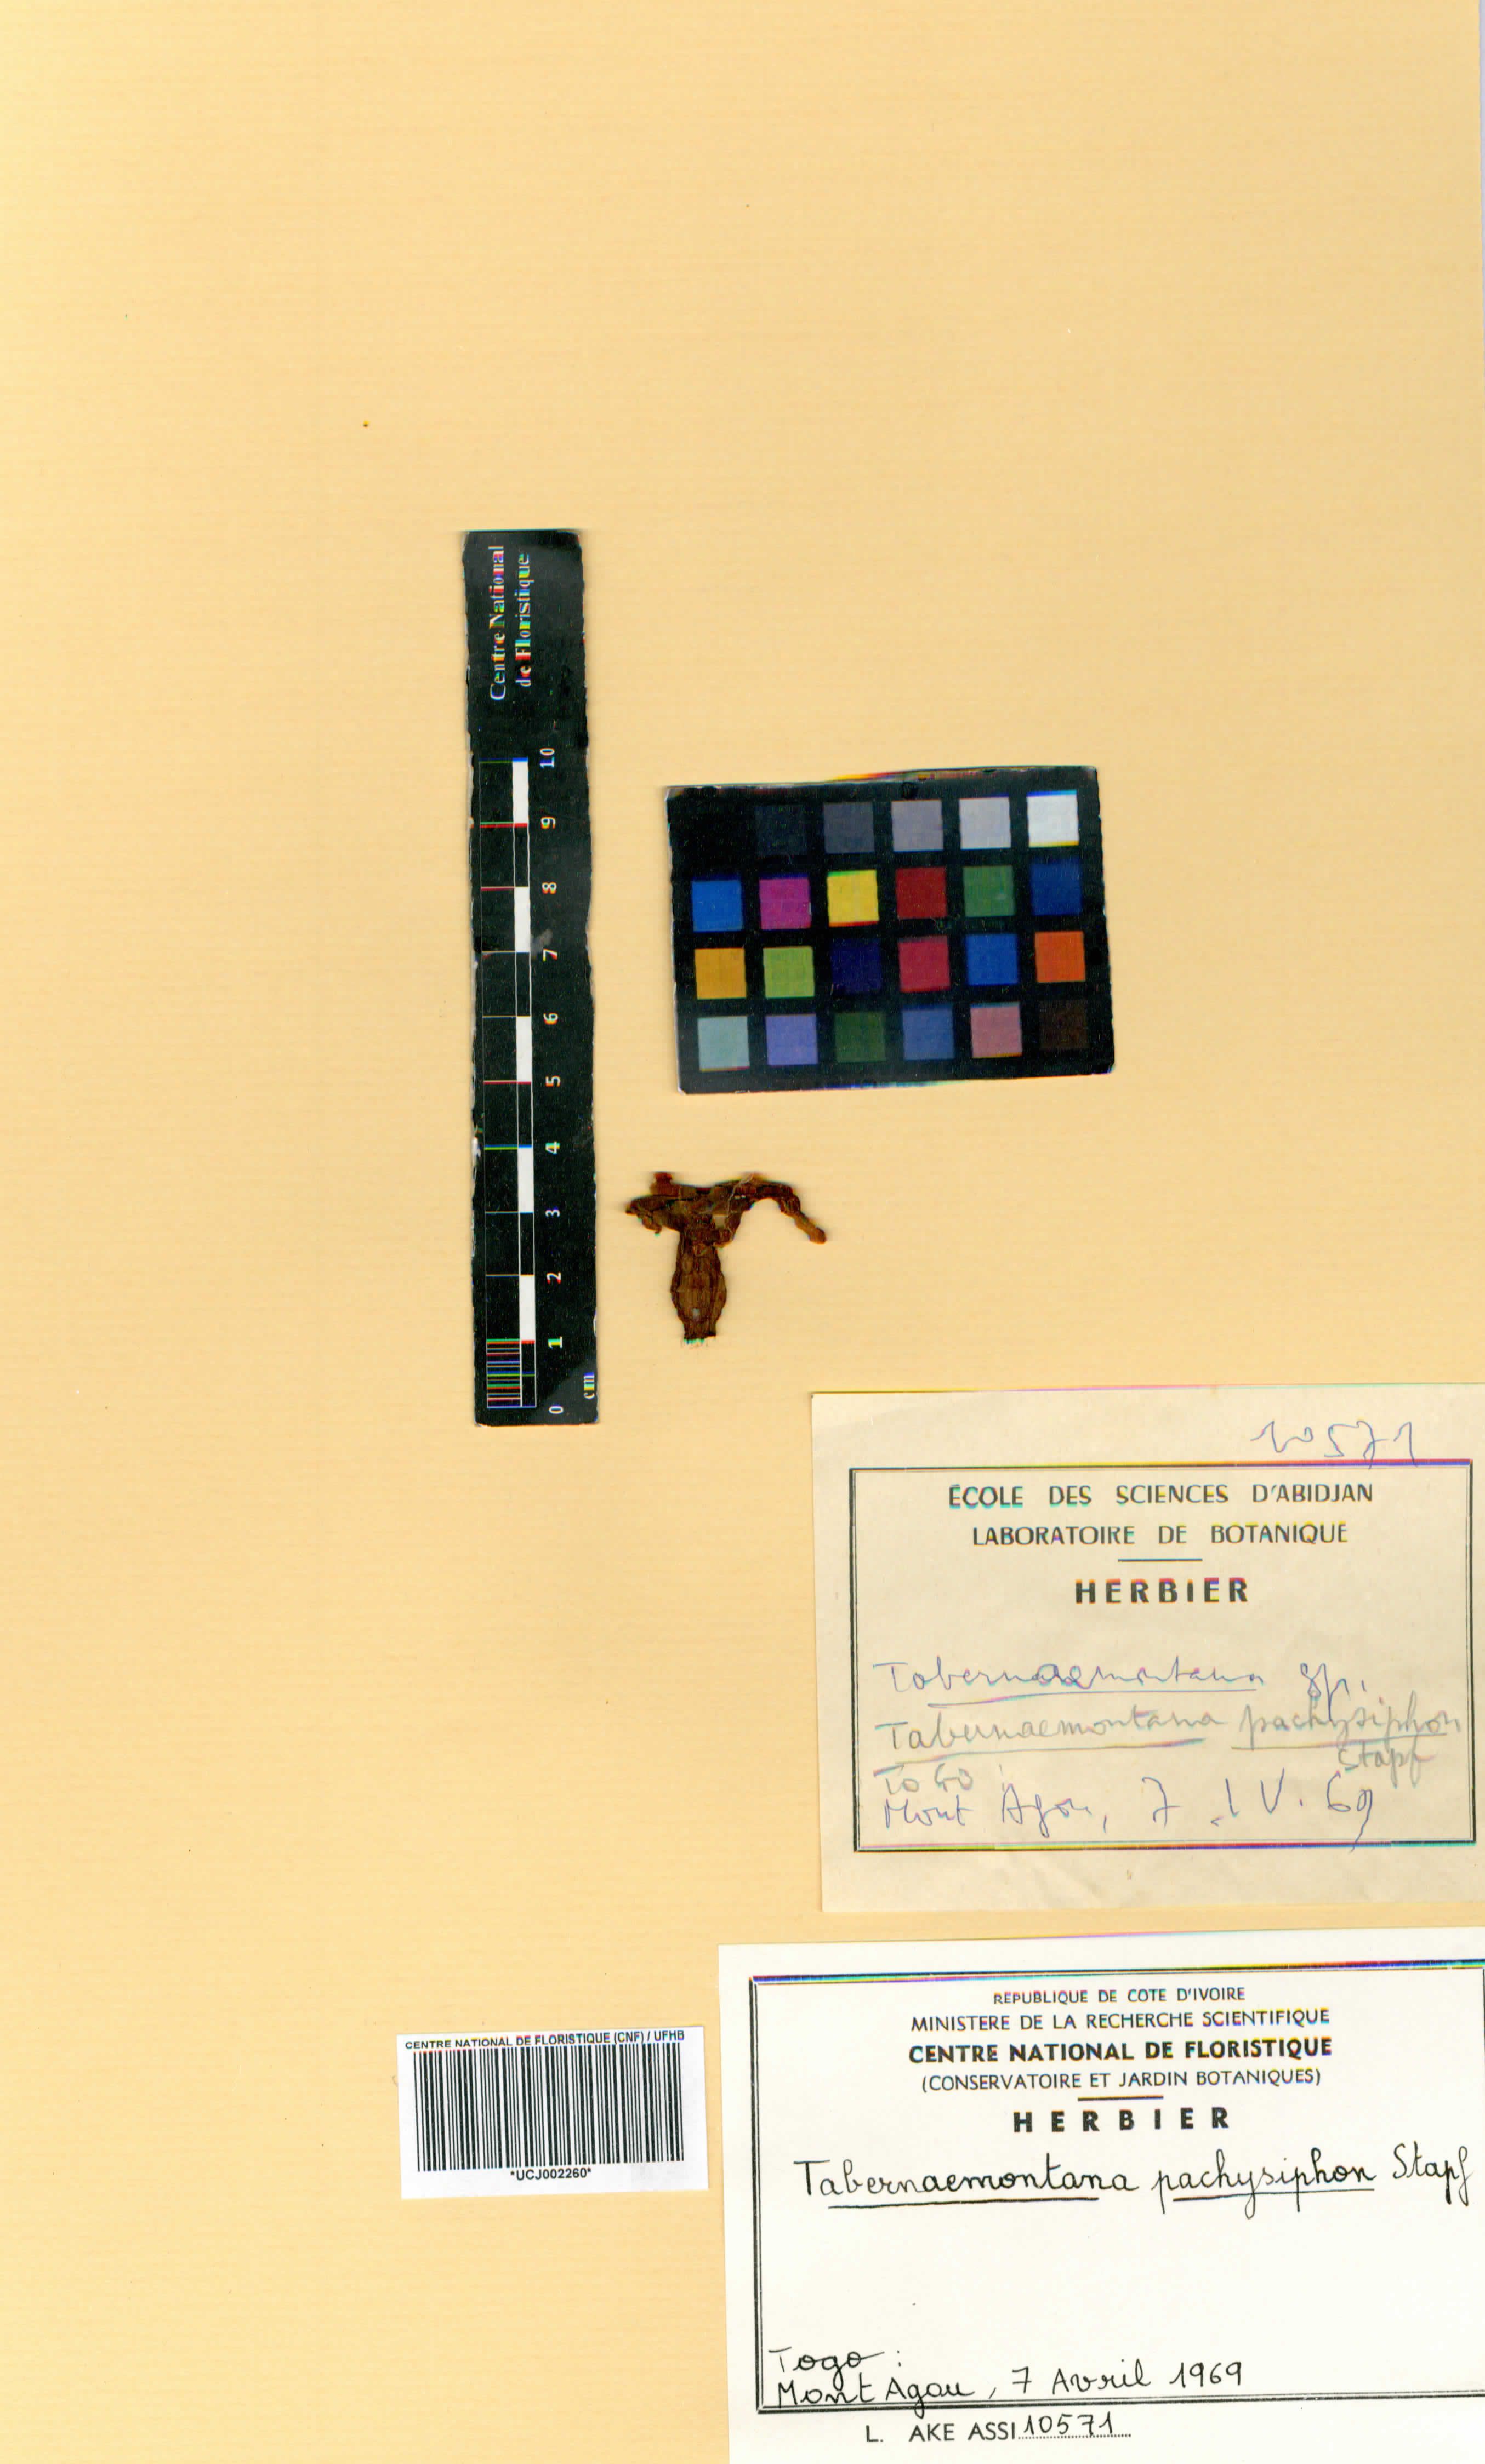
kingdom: Plantae
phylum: Tracheophyta
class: Magnoliopsida
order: Gentianales
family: Apocynaceae
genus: Tabernaemontana
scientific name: Tabernaemontana pachysiphon
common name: Giant pinwheel-flower
